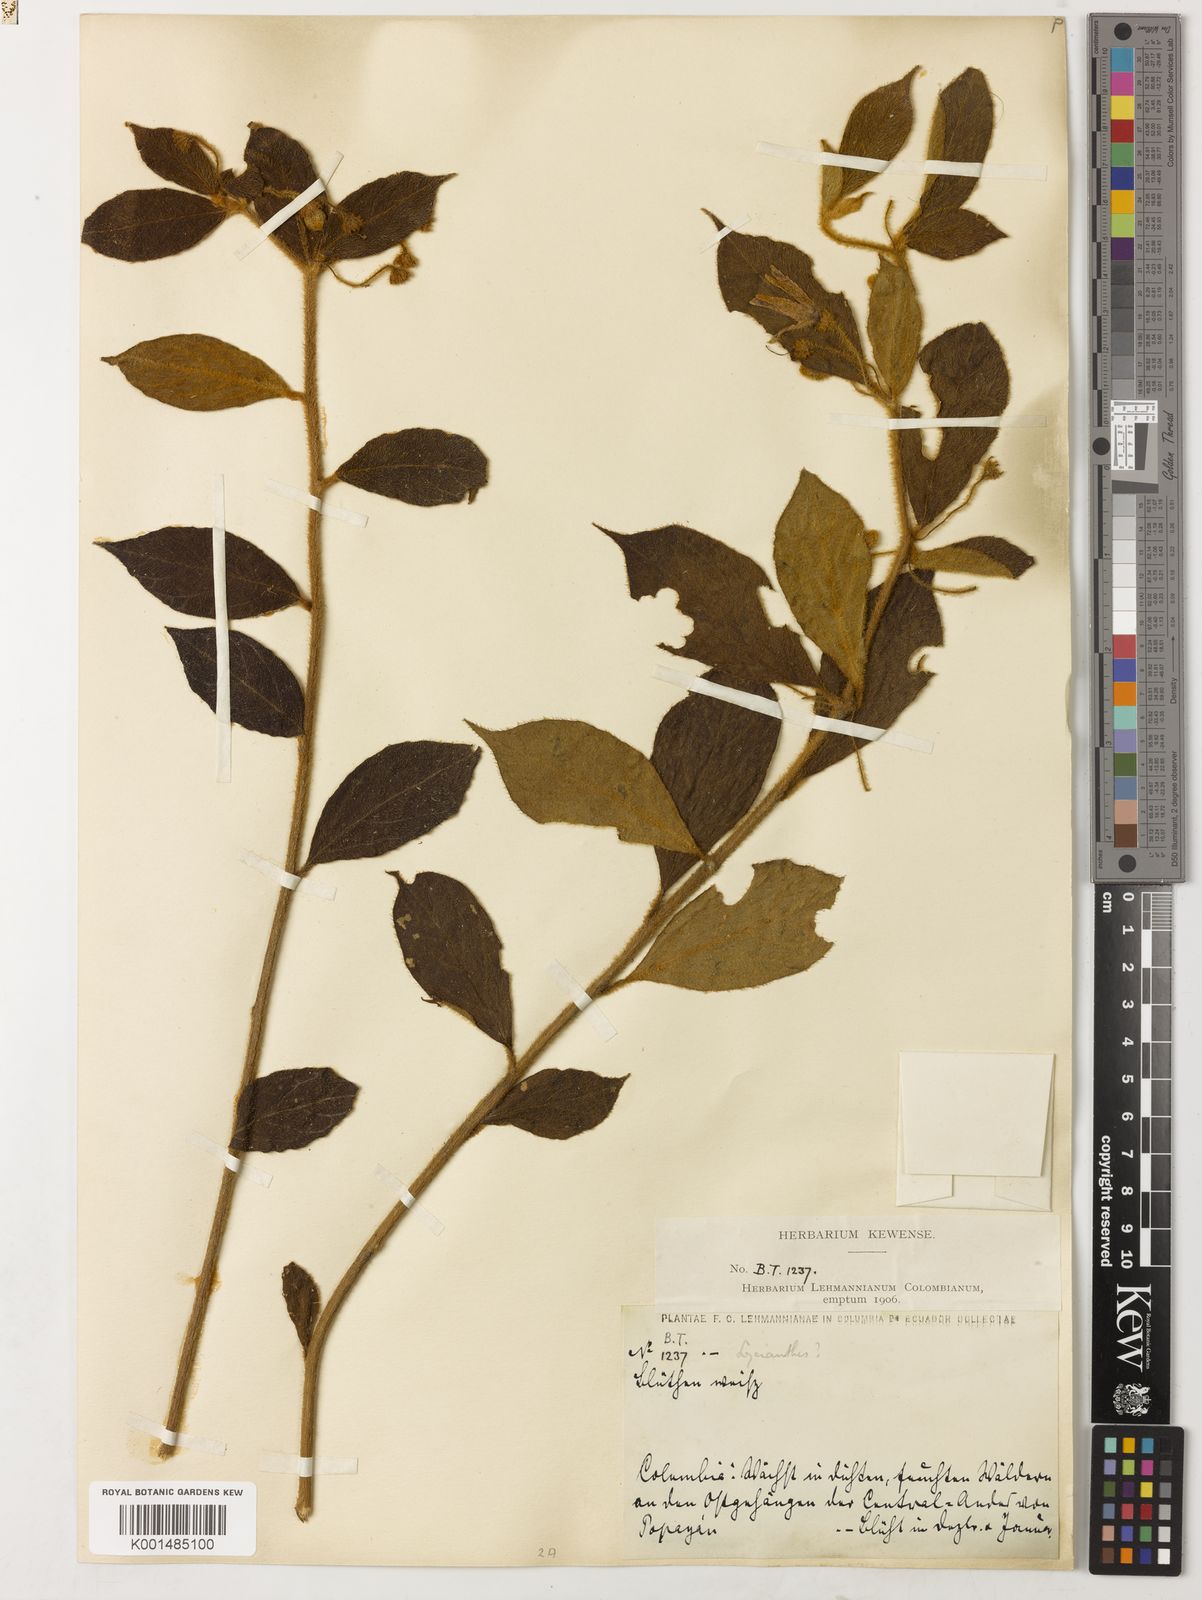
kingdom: Plantae
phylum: Tracheophyta
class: Magnoliopsida
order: Solanales
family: Solanaceae
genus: Lycianthes
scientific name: Lycianthes acutifolia
